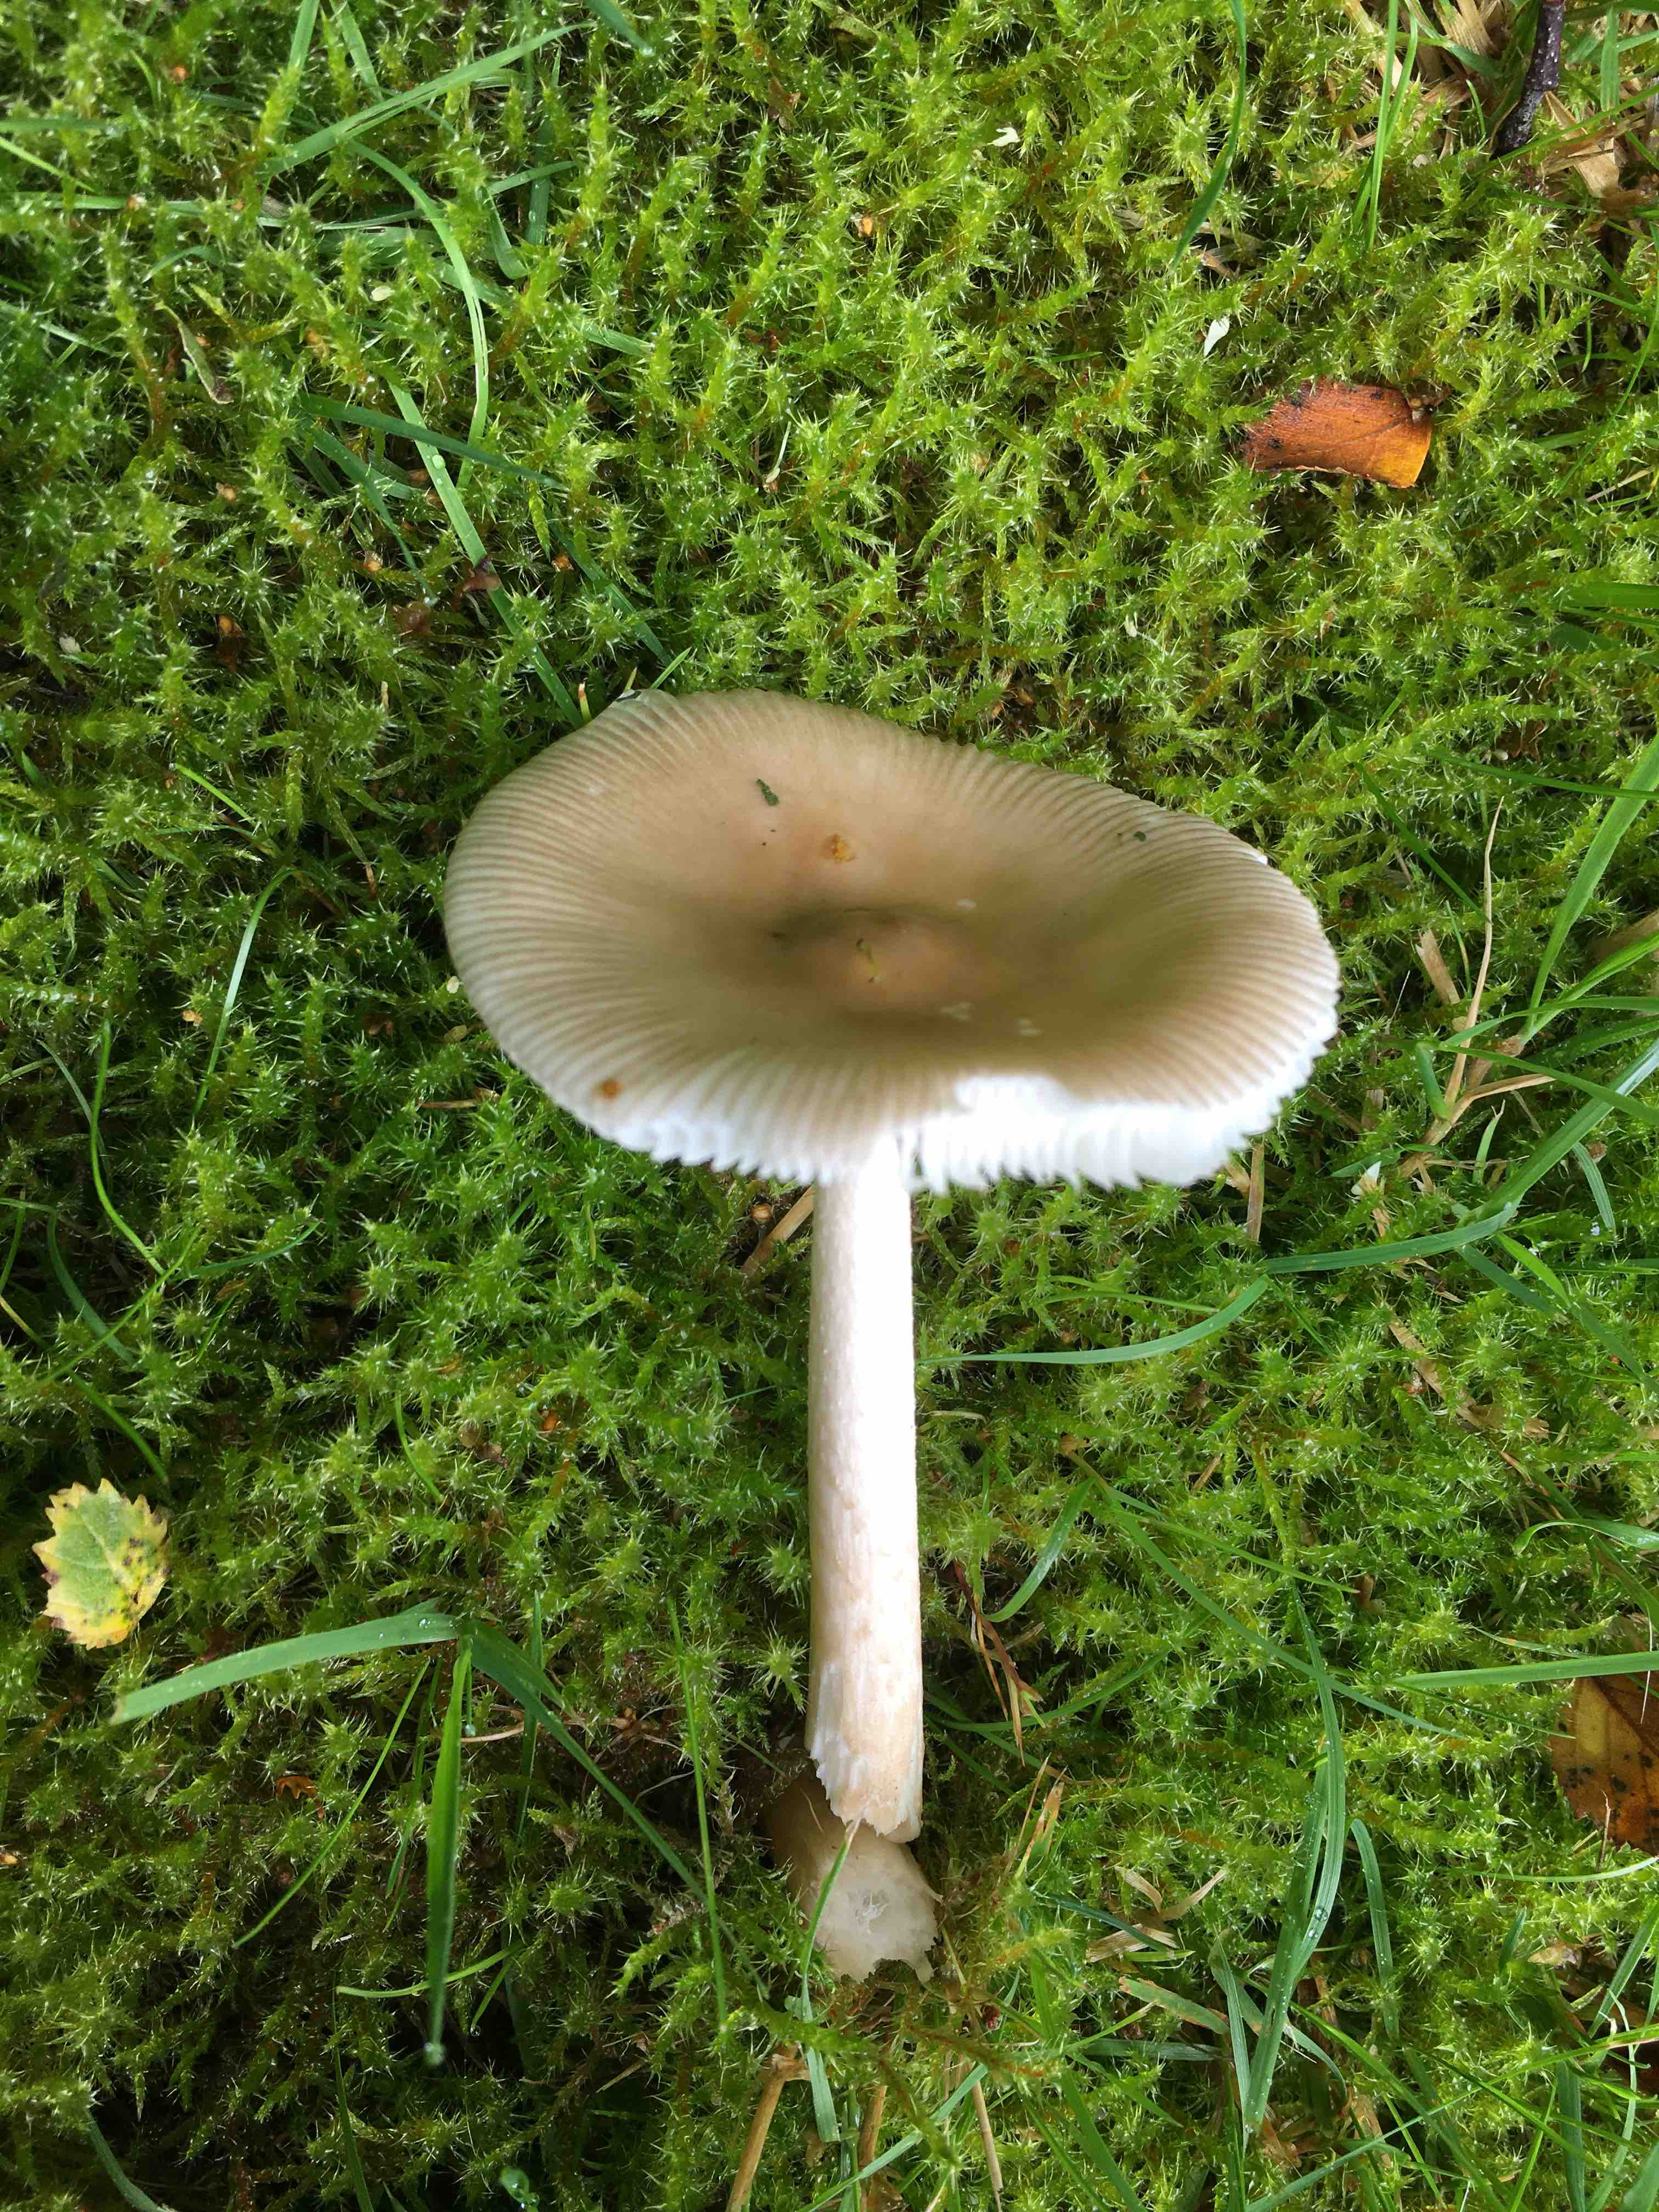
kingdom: Fungi
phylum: Basidiomycota
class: Agaricomycetes
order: Agaricales
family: Amanitaceae
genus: Amanita
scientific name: Amanita
